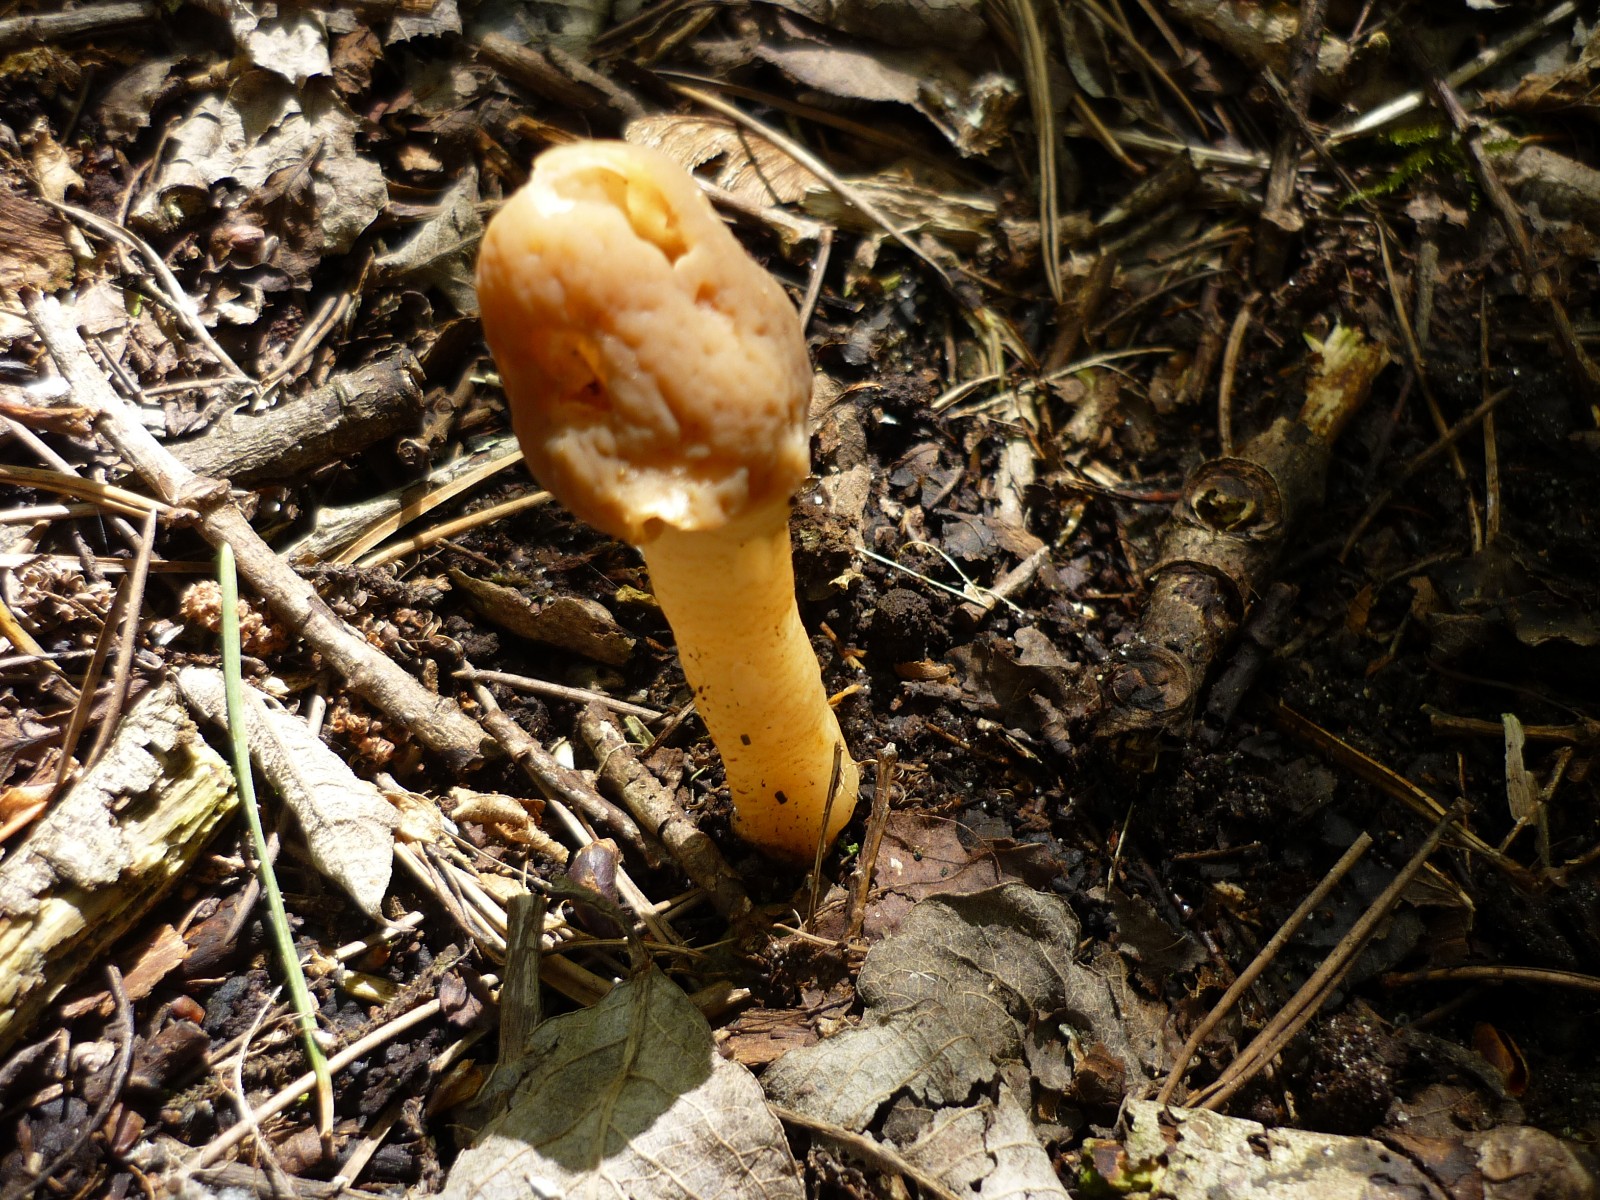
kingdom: Fungi
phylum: Ascomycota
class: Pezizomycetes
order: Pezizales
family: Morchellaceae
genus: Verpa
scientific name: Verpa conica
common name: glat klokkemorkel
